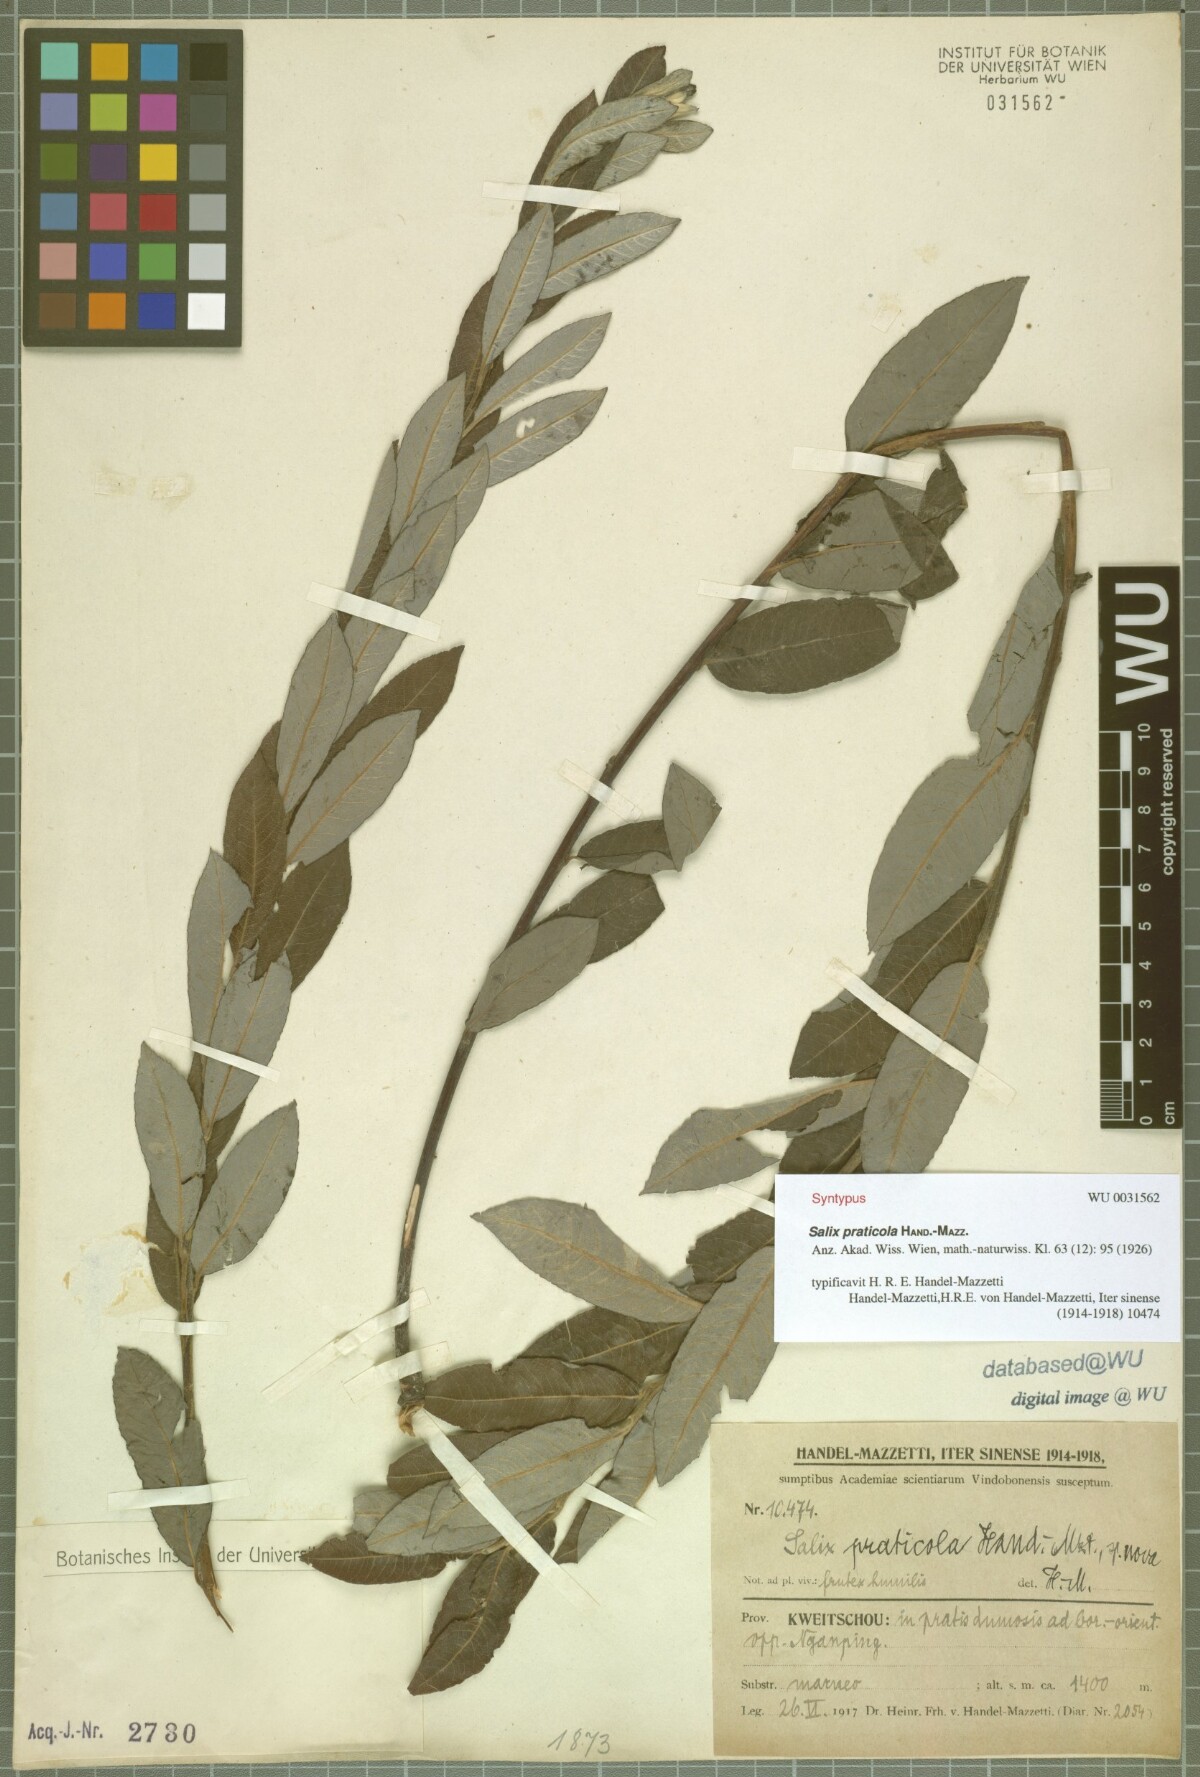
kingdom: Plantae
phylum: Tracheophyta
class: Magnoliopsida
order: Malpighiales
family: Salicaceae
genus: Salix
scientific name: Salix praticola
